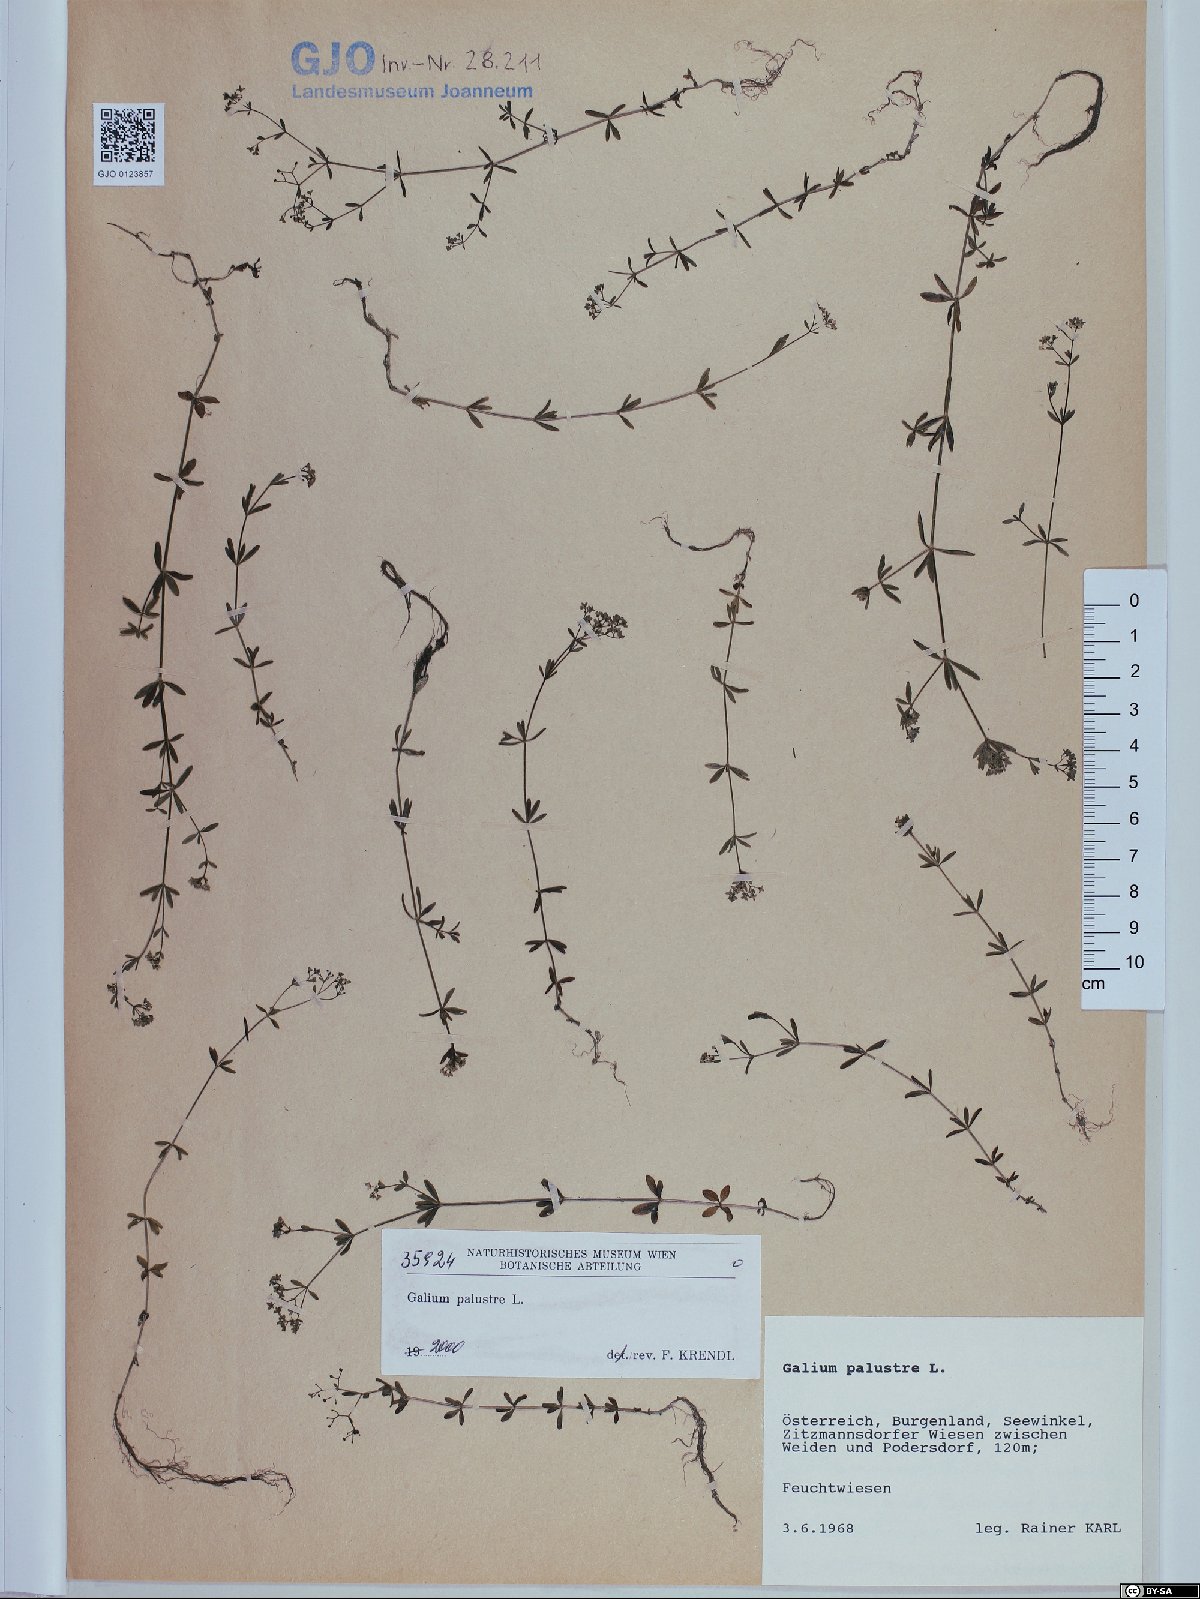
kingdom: Plantae
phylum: Tracheophyta
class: Magnoliopsida
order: Gentianales
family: Rubiaceae
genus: Galium
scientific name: Galium palustre
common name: Common marsh-bedstraw
